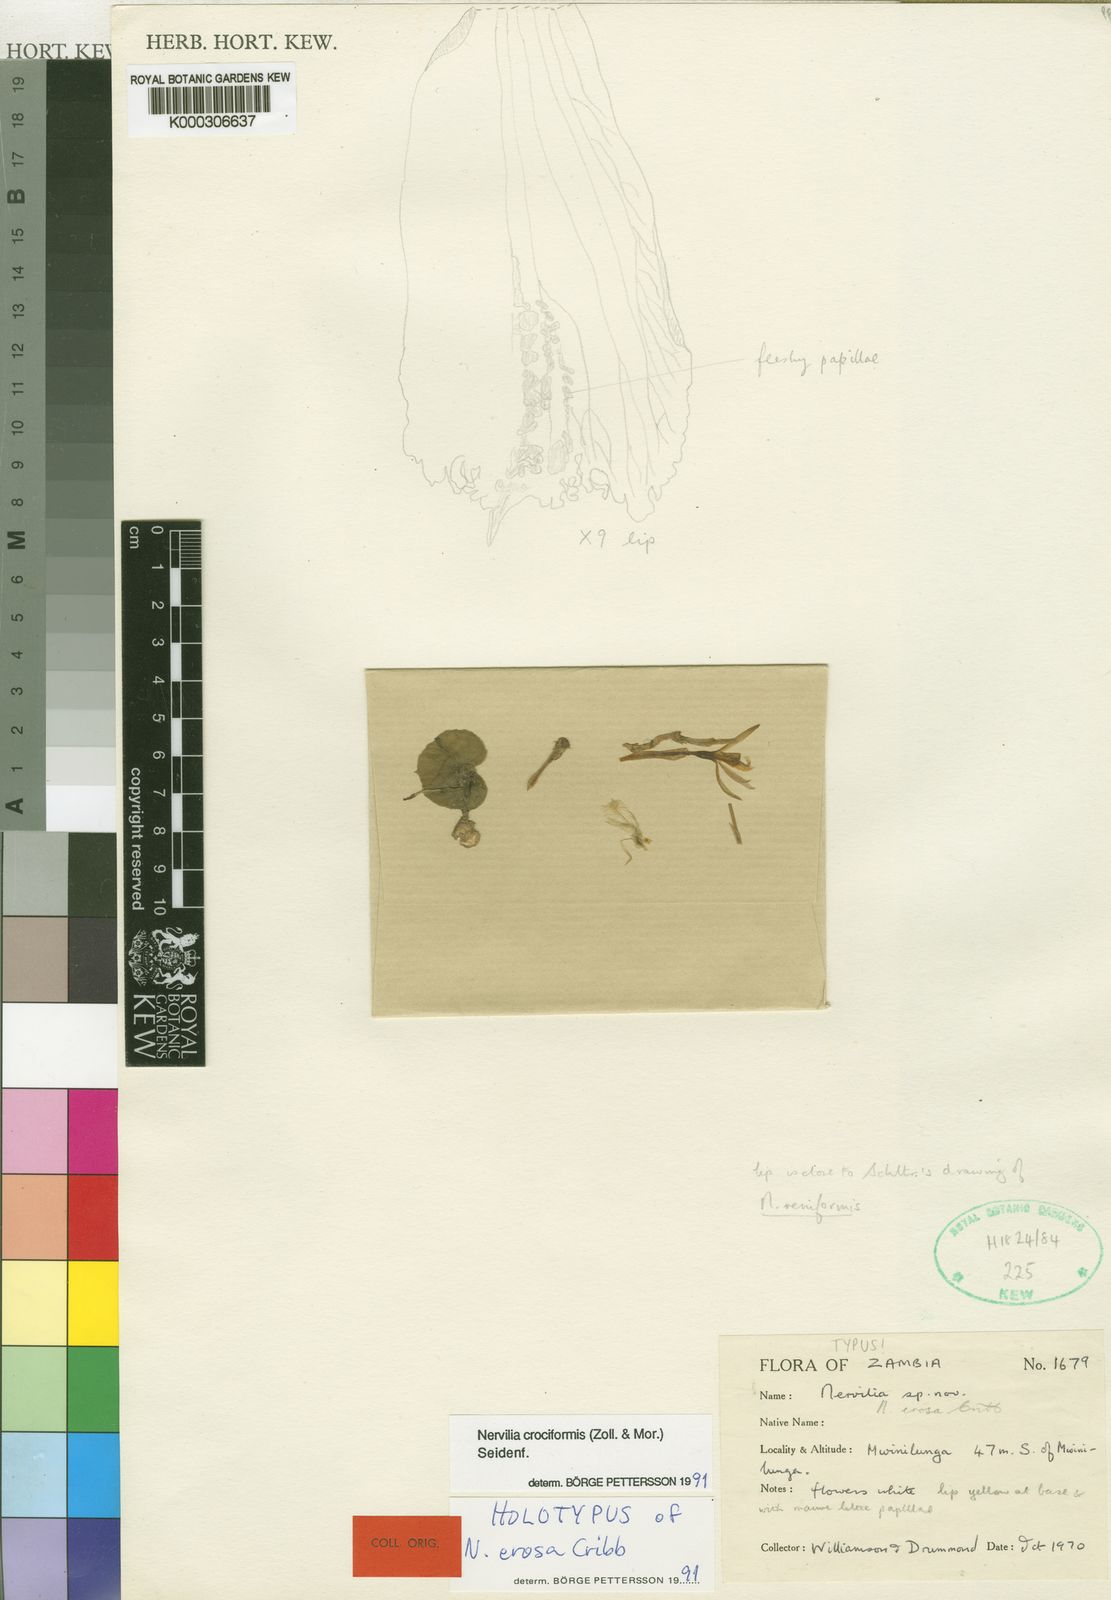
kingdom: Plantae
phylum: Tracheophyta
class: Liliopsida
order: Asparagales
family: Orchidaceae
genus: Nervilia
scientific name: Nervilia simplex
